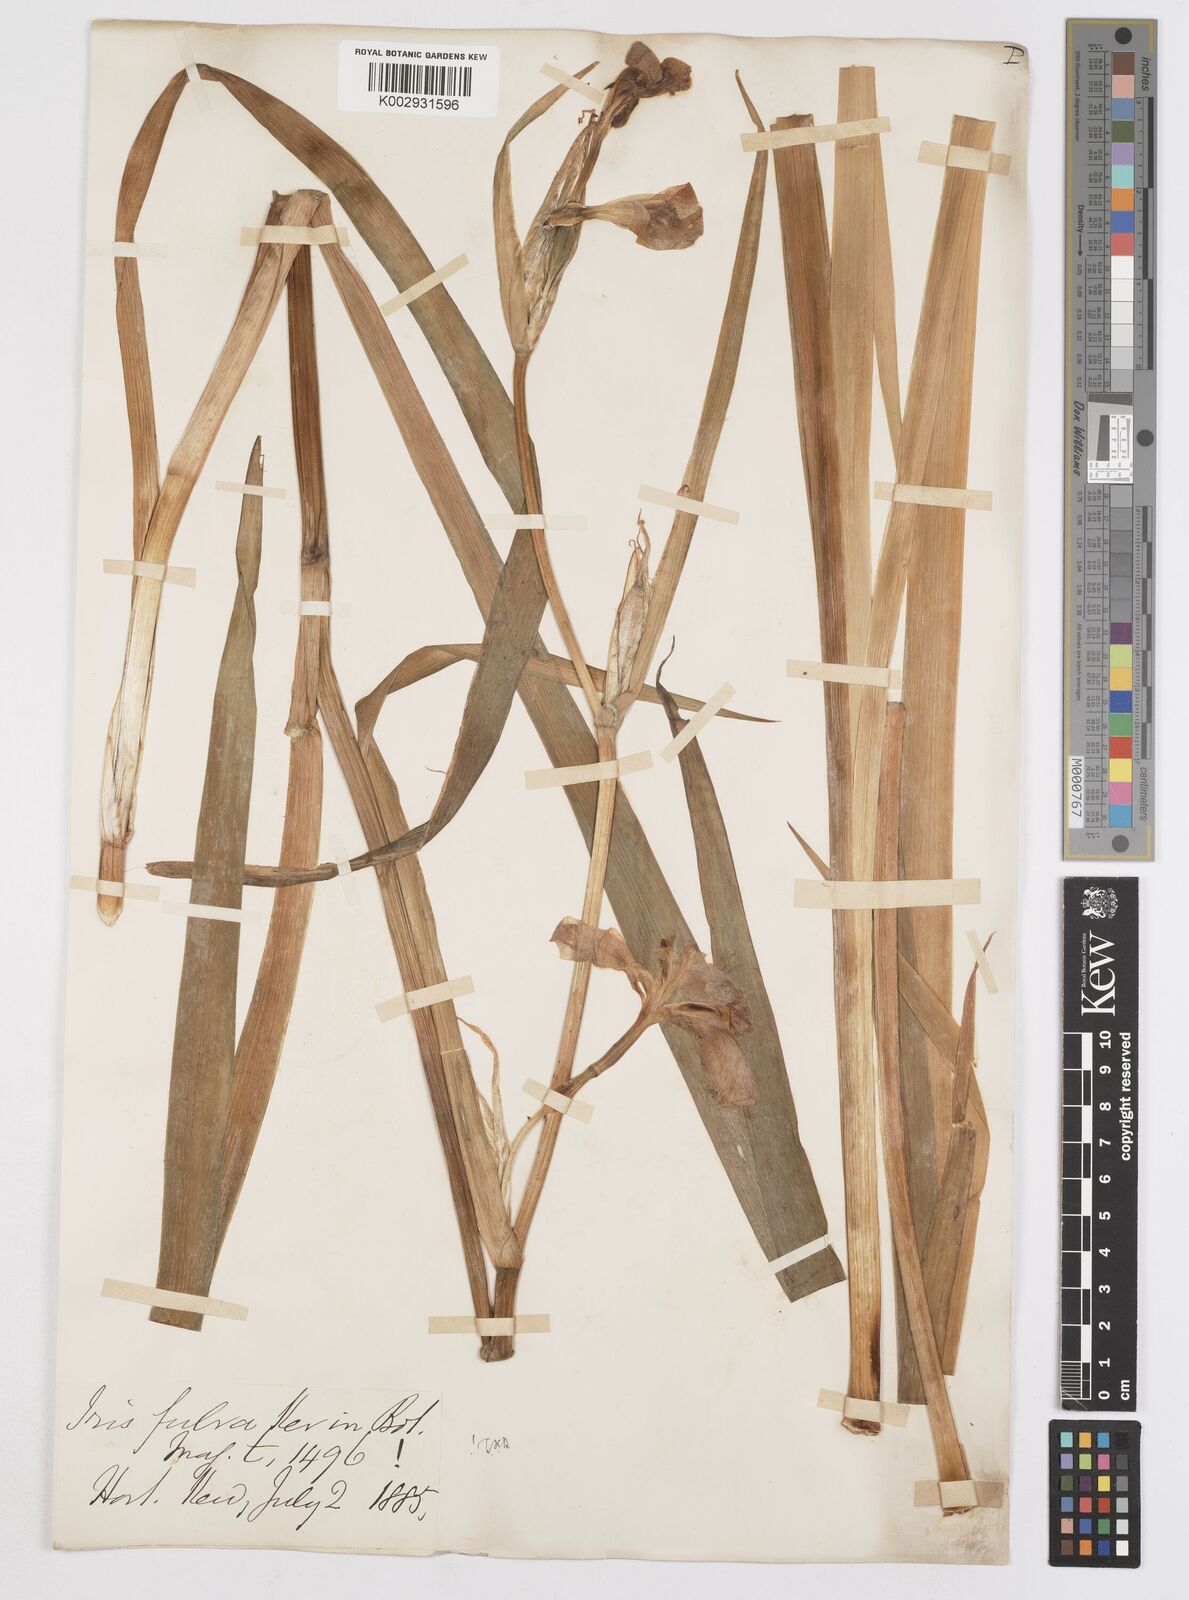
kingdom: Plantae
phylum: Tracheophyta
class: Liliopsida
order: Asparagales
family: Iridaceae
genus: Iris
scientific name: Iris fulva
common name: Copper iris
